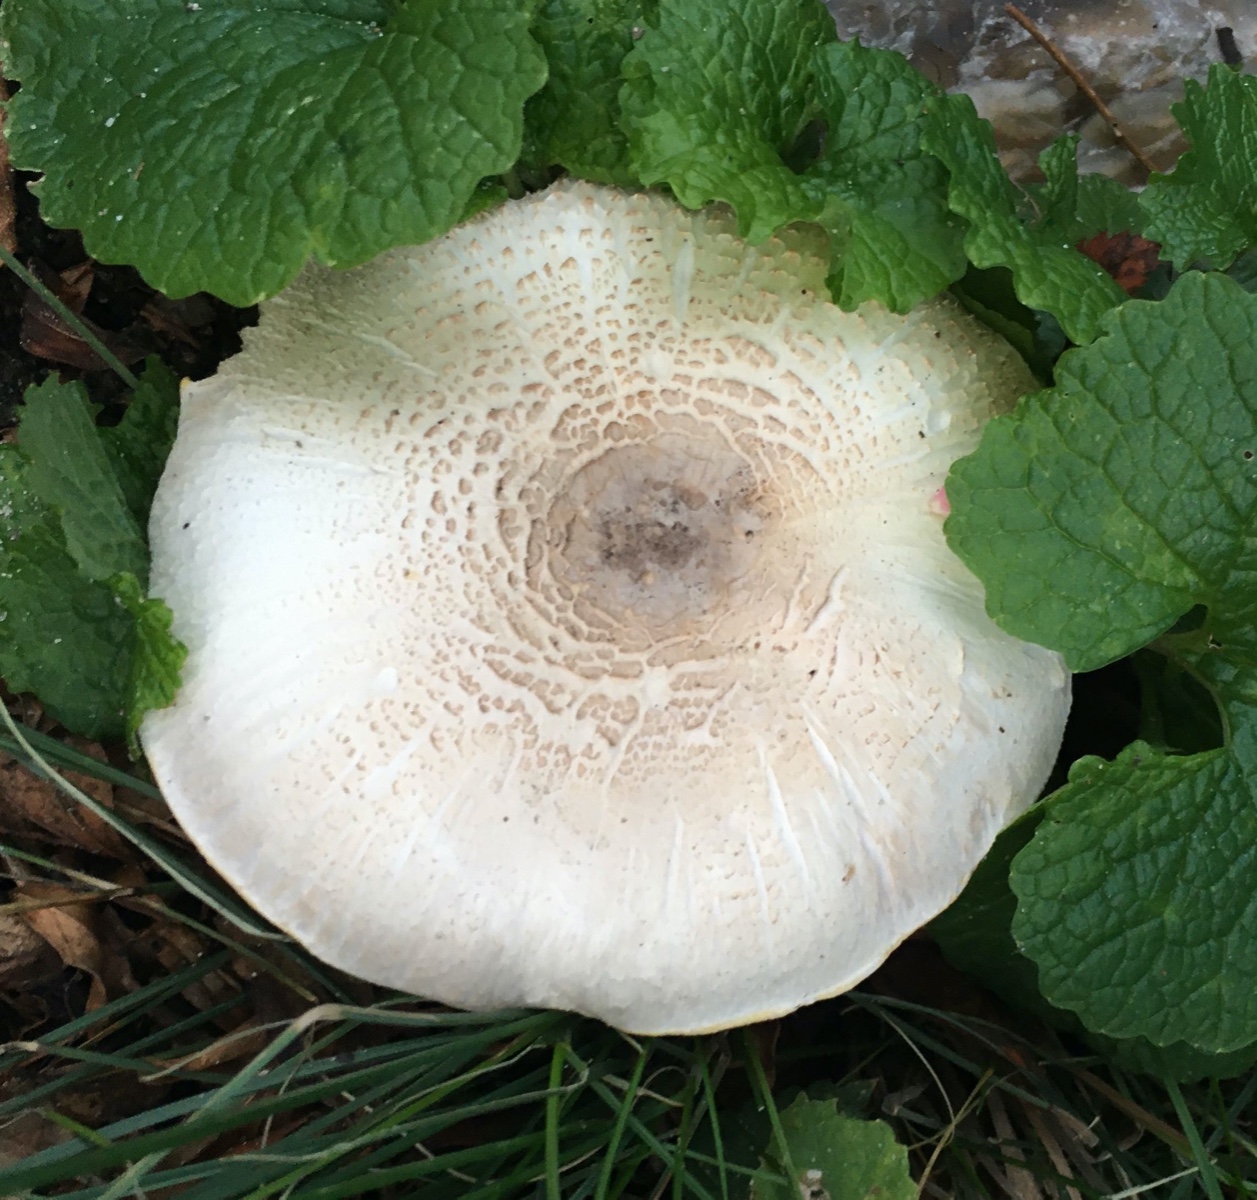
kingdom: Fungi
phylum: Basidiomycota
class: Agaricomycetes
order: Agaricales
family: Agaricaceae
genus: Agaricus
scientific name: Agaricus xanthodermus
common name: karbol-champignon
